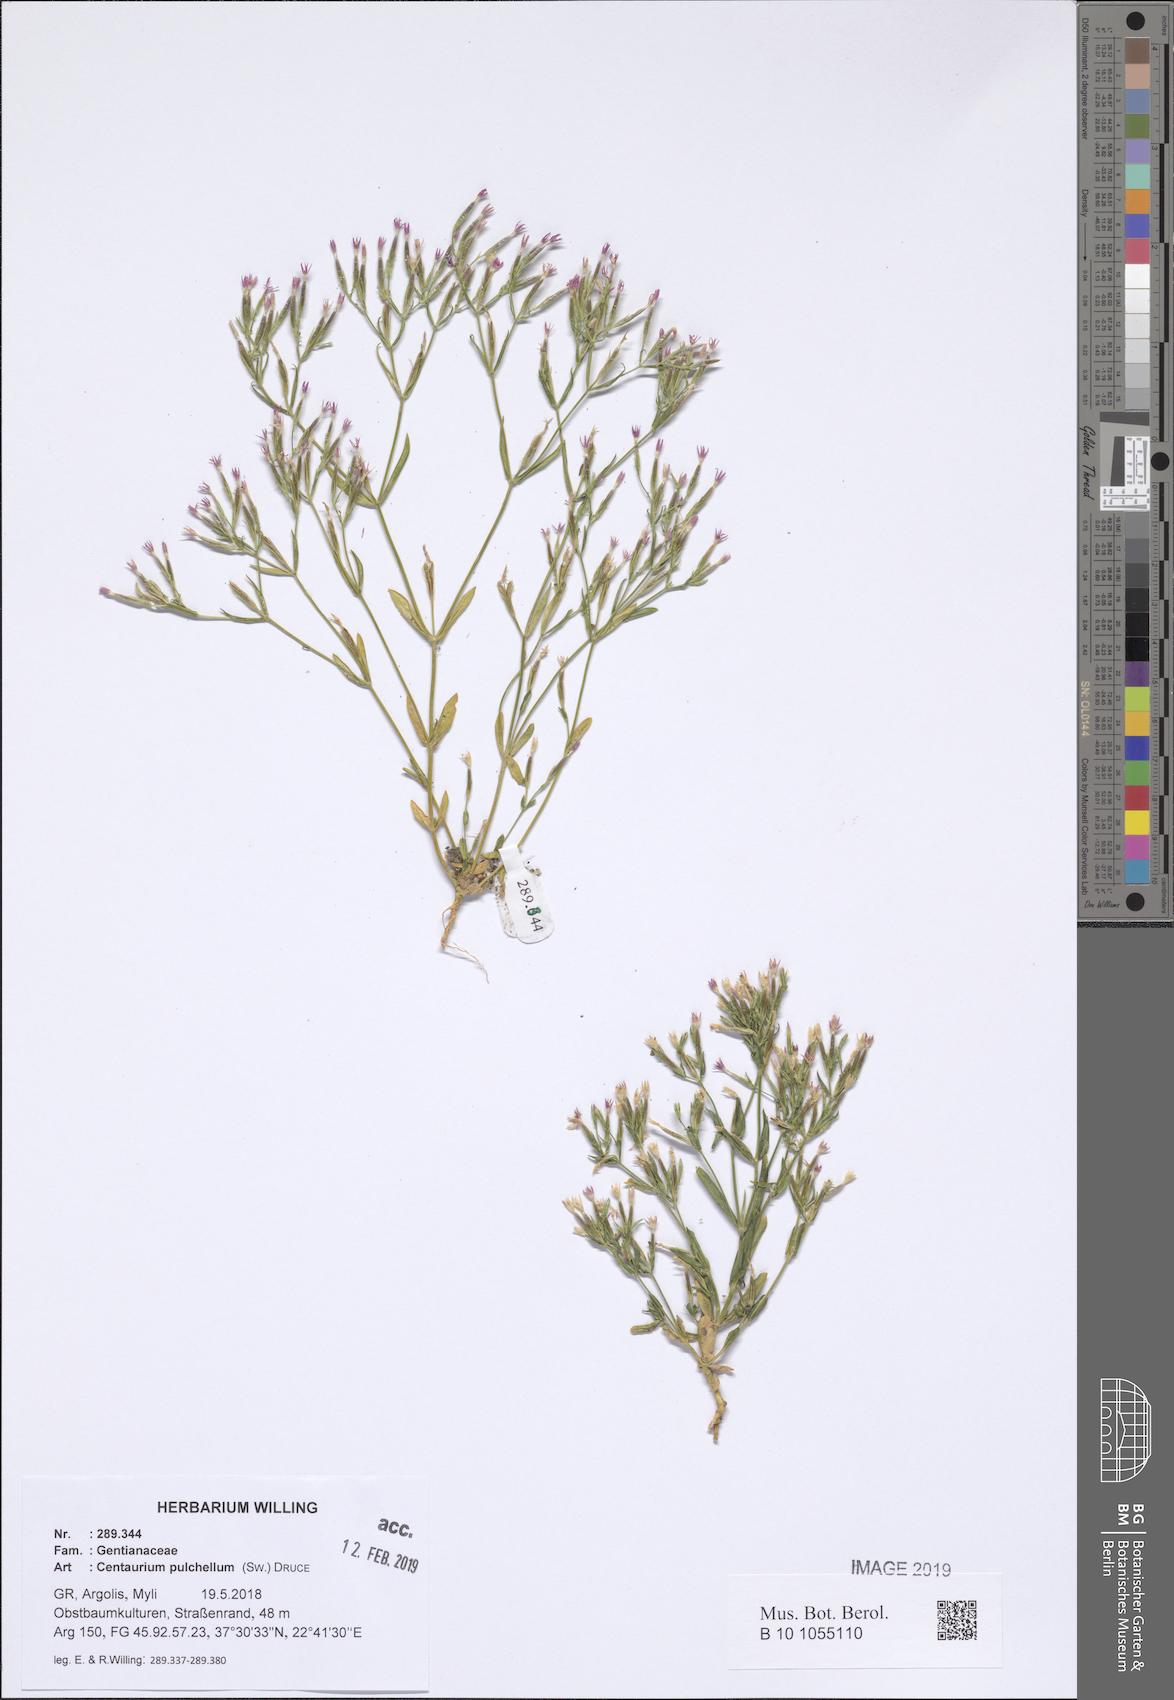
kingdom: Plantae
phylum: Tracheophyta
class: Magnoliopsida
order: Gentianales
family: Gentianaceae
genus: Centaurium
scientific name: Centaurium pulchellum
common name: Lesser centaury
